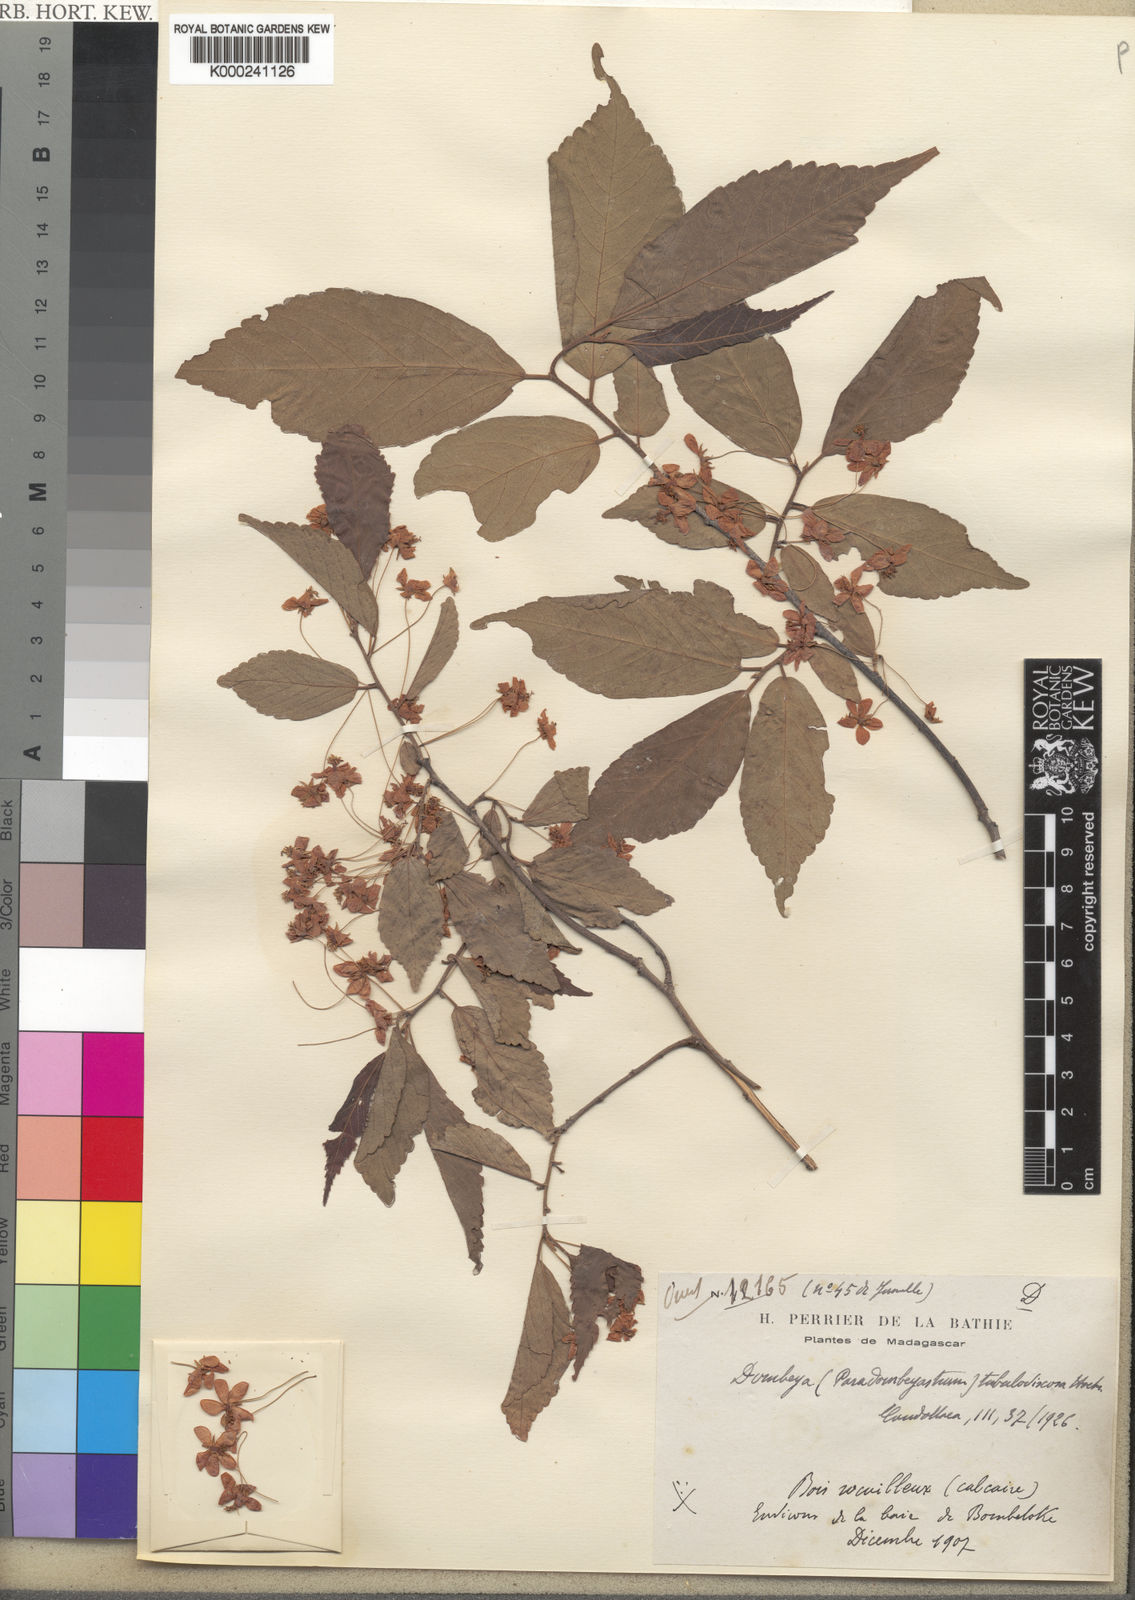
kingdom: Plantae
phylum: Tracheophyta
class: Magnoliopsida
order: Malvales
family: Malvaceae
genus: Dombeya
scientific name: Dombeya tubulosoviscosa
